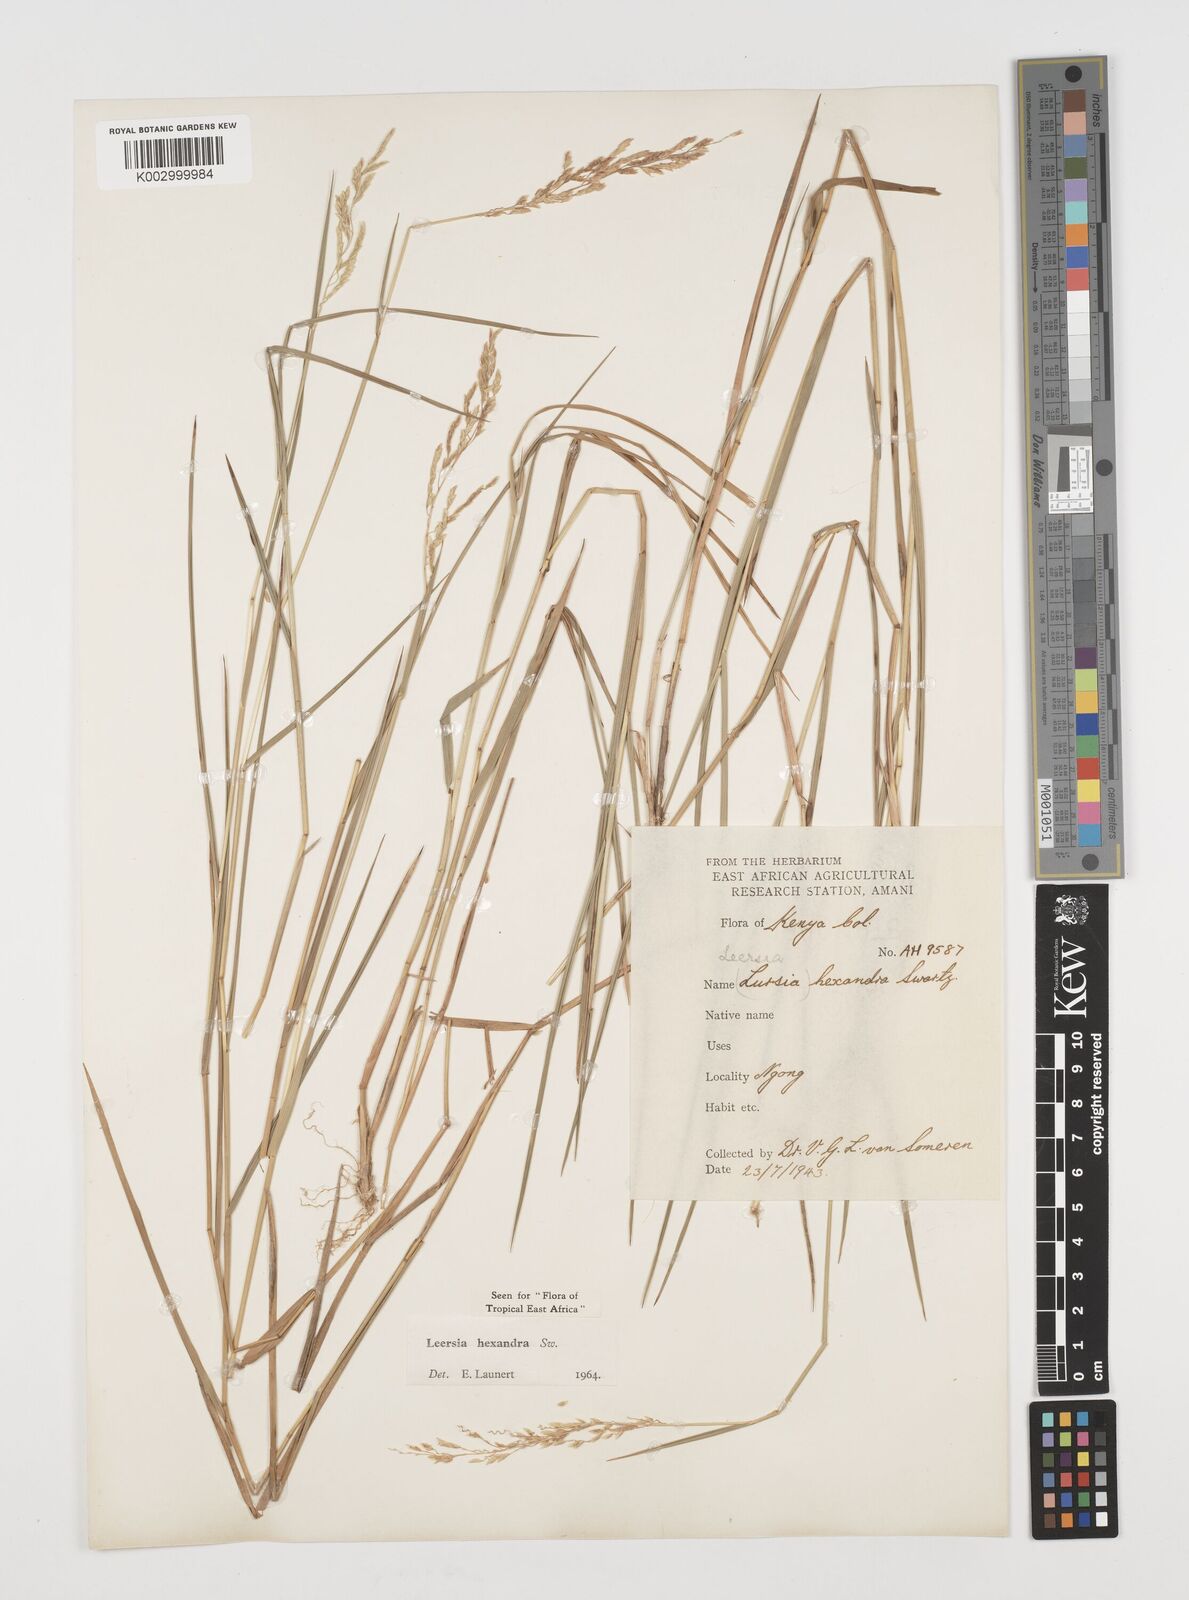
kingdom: Plantae
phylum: Tracheophyta
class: Liliopsida
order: Poales
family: Poaceae
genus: Leersia
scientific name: Leersia hexandra
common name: Southern cut grass
